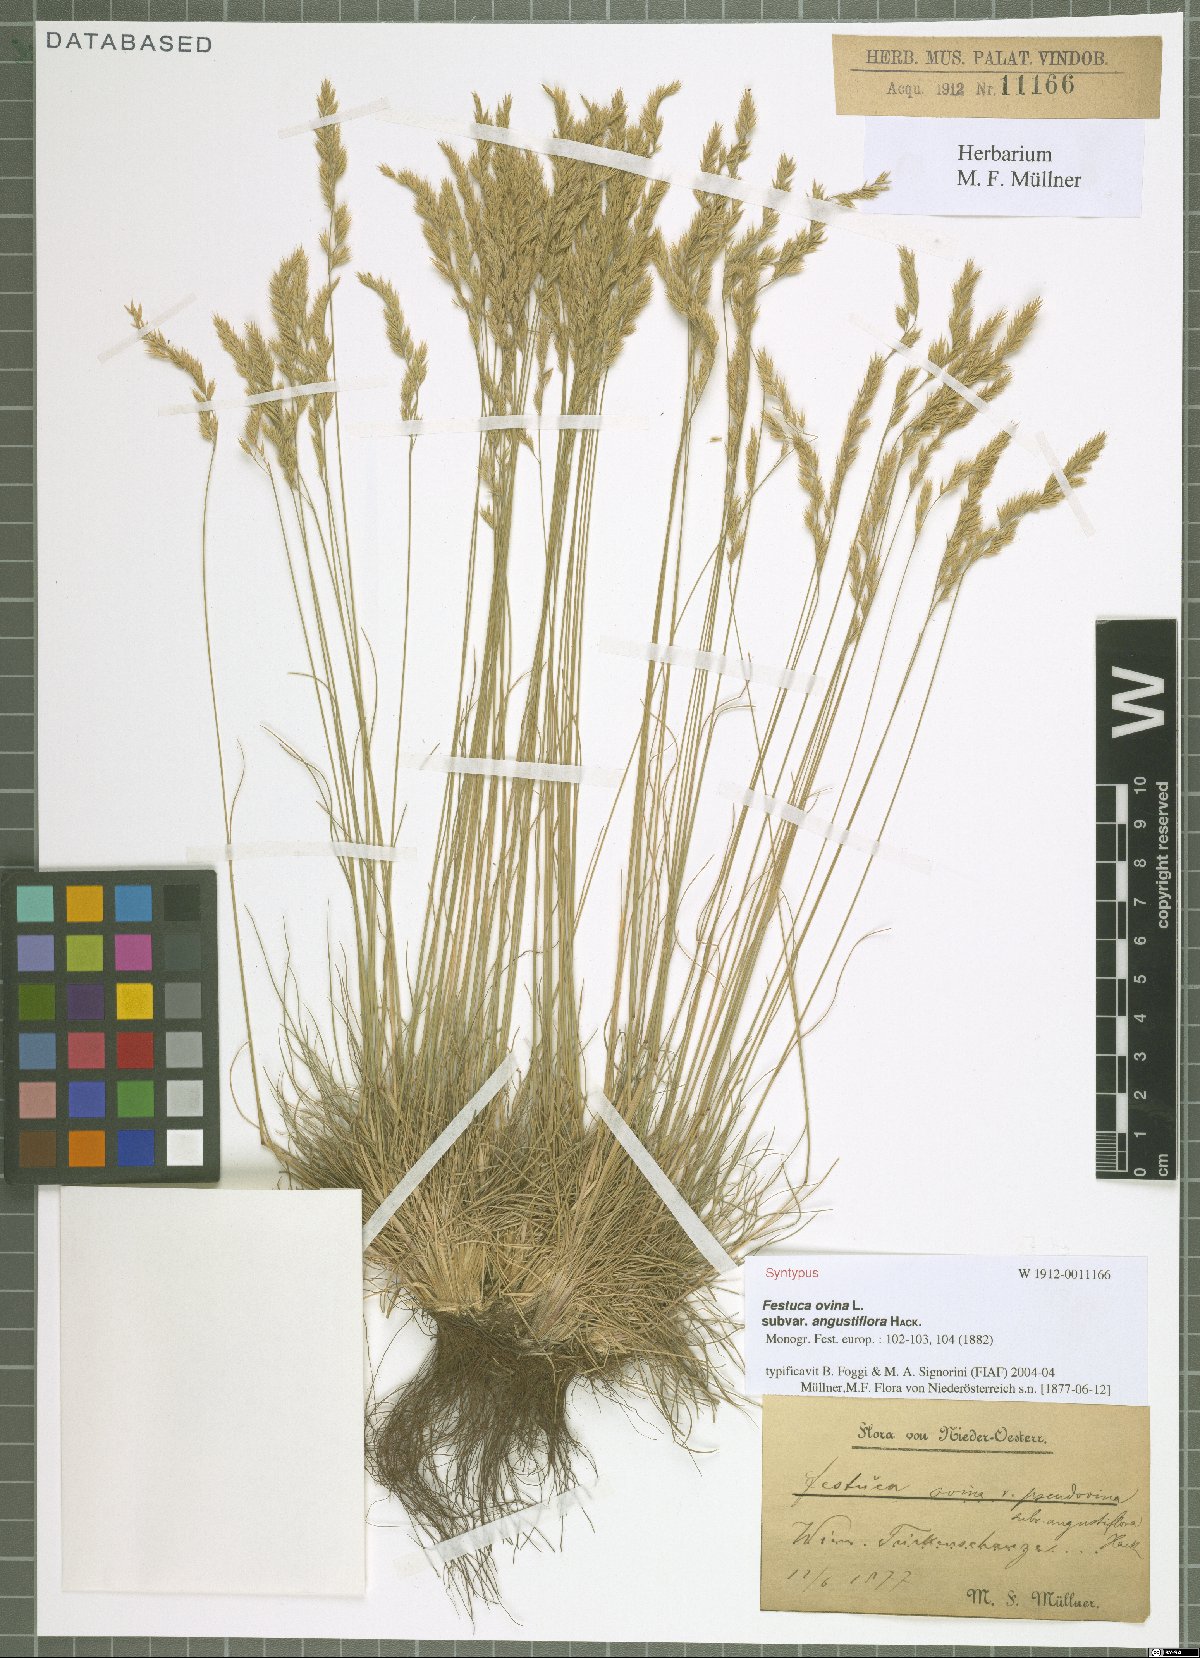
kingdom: Plantae
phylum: Tracheophyta
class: Liliopsida
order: Poales
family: Poaceae
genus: Festuca
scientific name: Festuca ovina
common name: Sheep fescue
